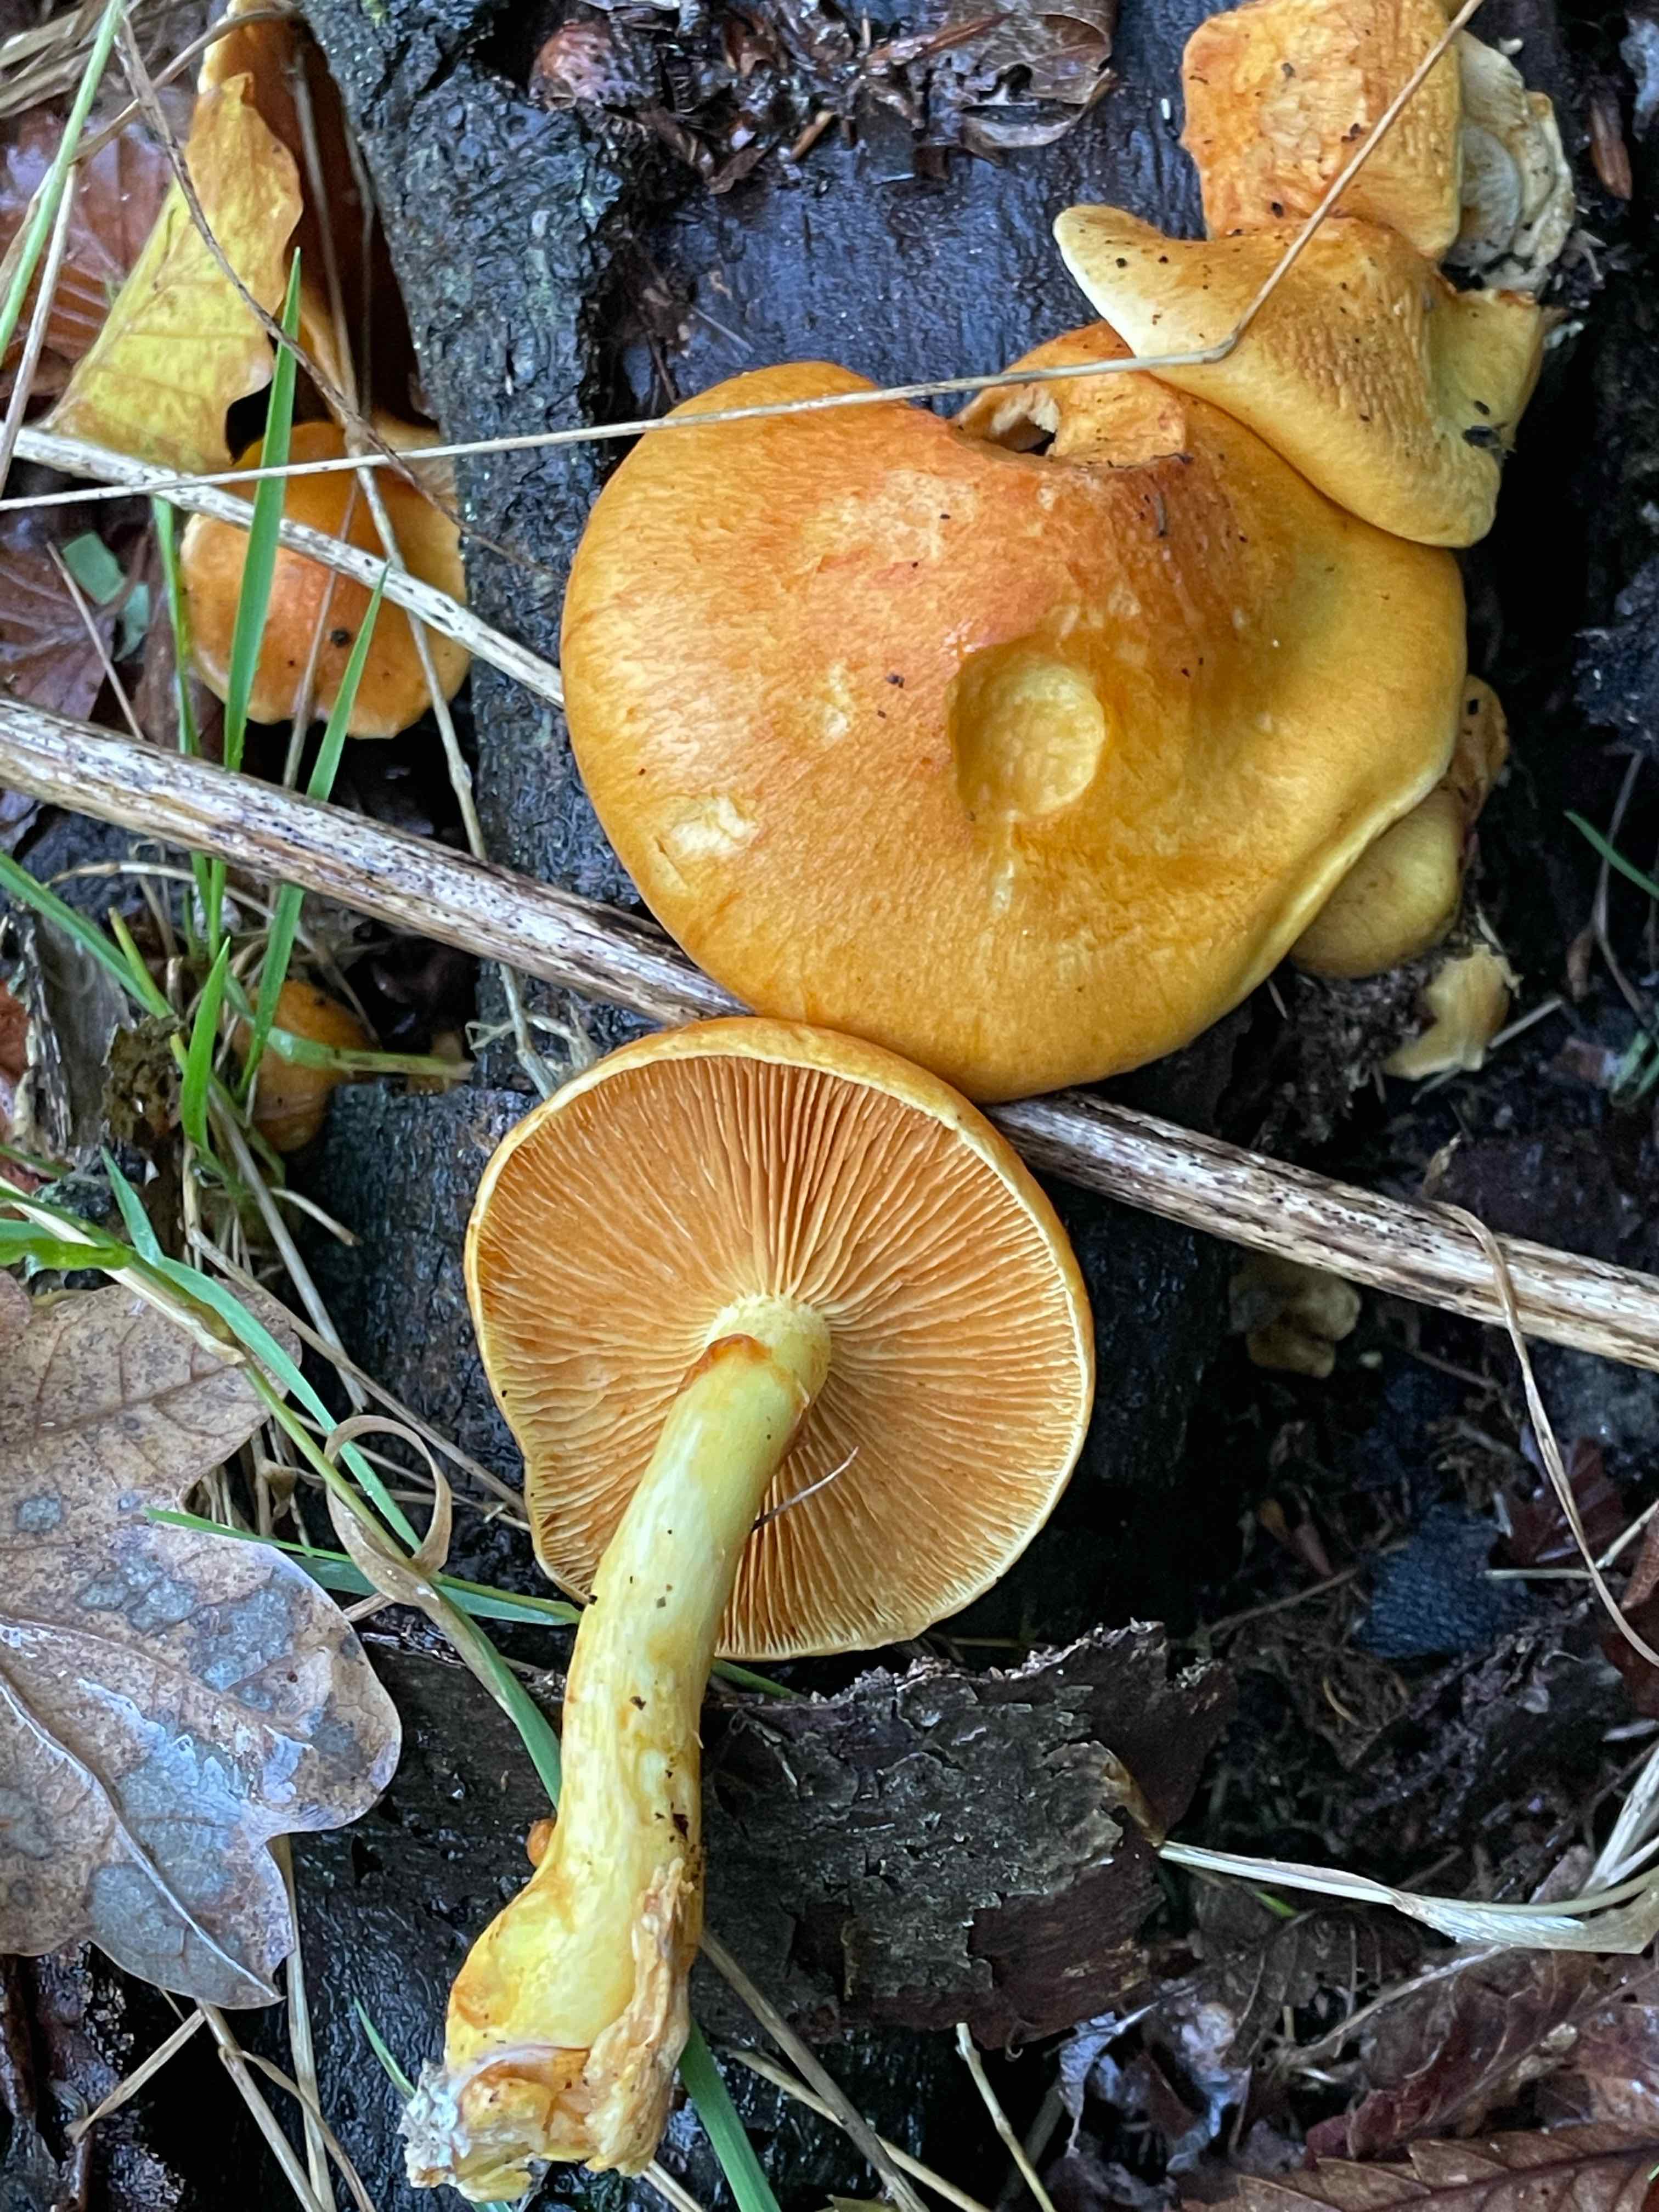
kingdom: Fungi
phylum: Basidiomycota
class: Agaricomycetes
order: Agaricales
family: Hymenogastraceae
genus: Gymnopilus
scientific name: Gymnopilus spectabilis
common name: fibret flammehat
